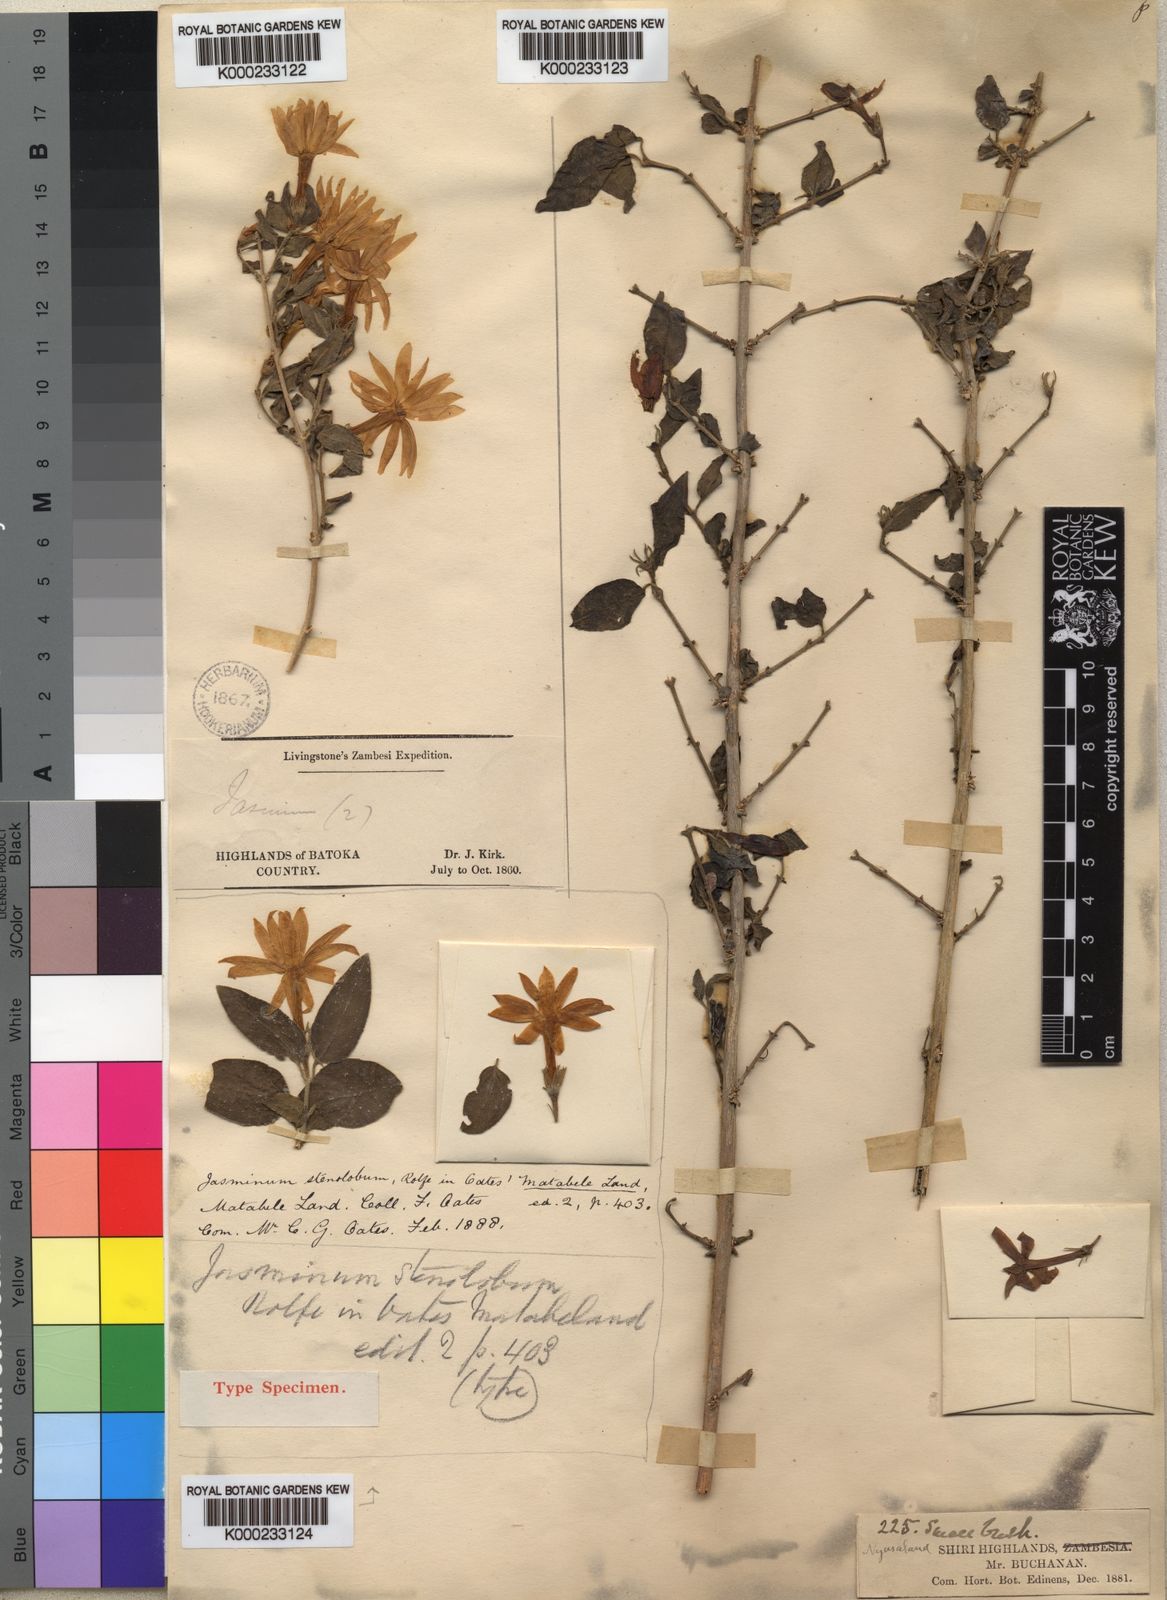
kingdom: Plantae
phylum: Tracheophyta
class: Magnoliopsida
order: Lamiales
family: Oleaceae
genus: Jasminum
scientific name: Jasminum stenolobum
